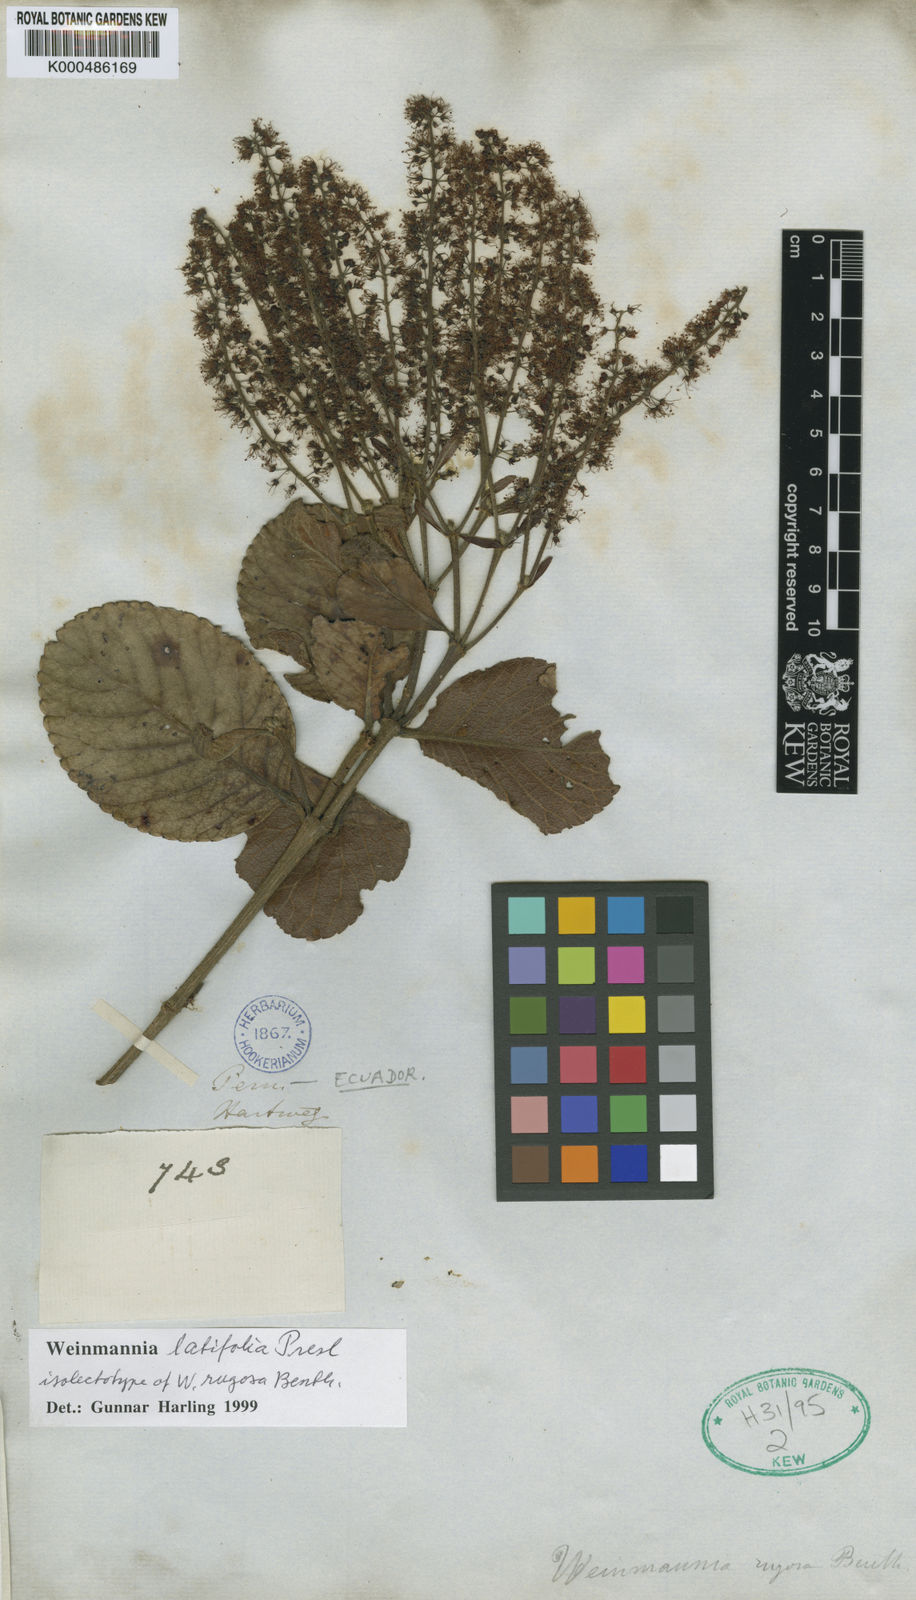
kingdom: Plantae
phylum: Tracheophyta
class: Magnoliopsida
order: Oxalidales
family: Cunoniaceae
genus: Weinmannia
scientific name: Weinmannia latifolia
